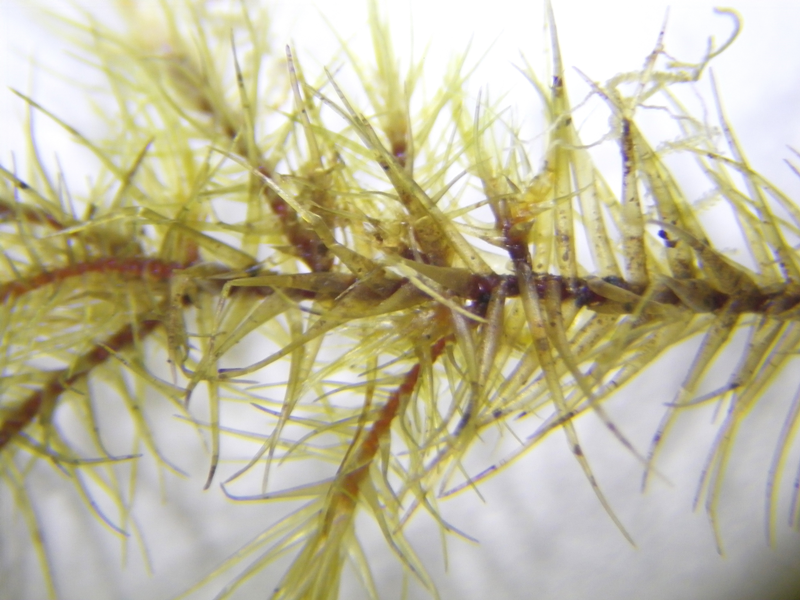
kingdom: Plantae
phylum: Bryophyta
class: Bryopsida
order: Hypnales
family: Sematophyllaceae
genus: Acroporium
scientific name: Acroporium downii
